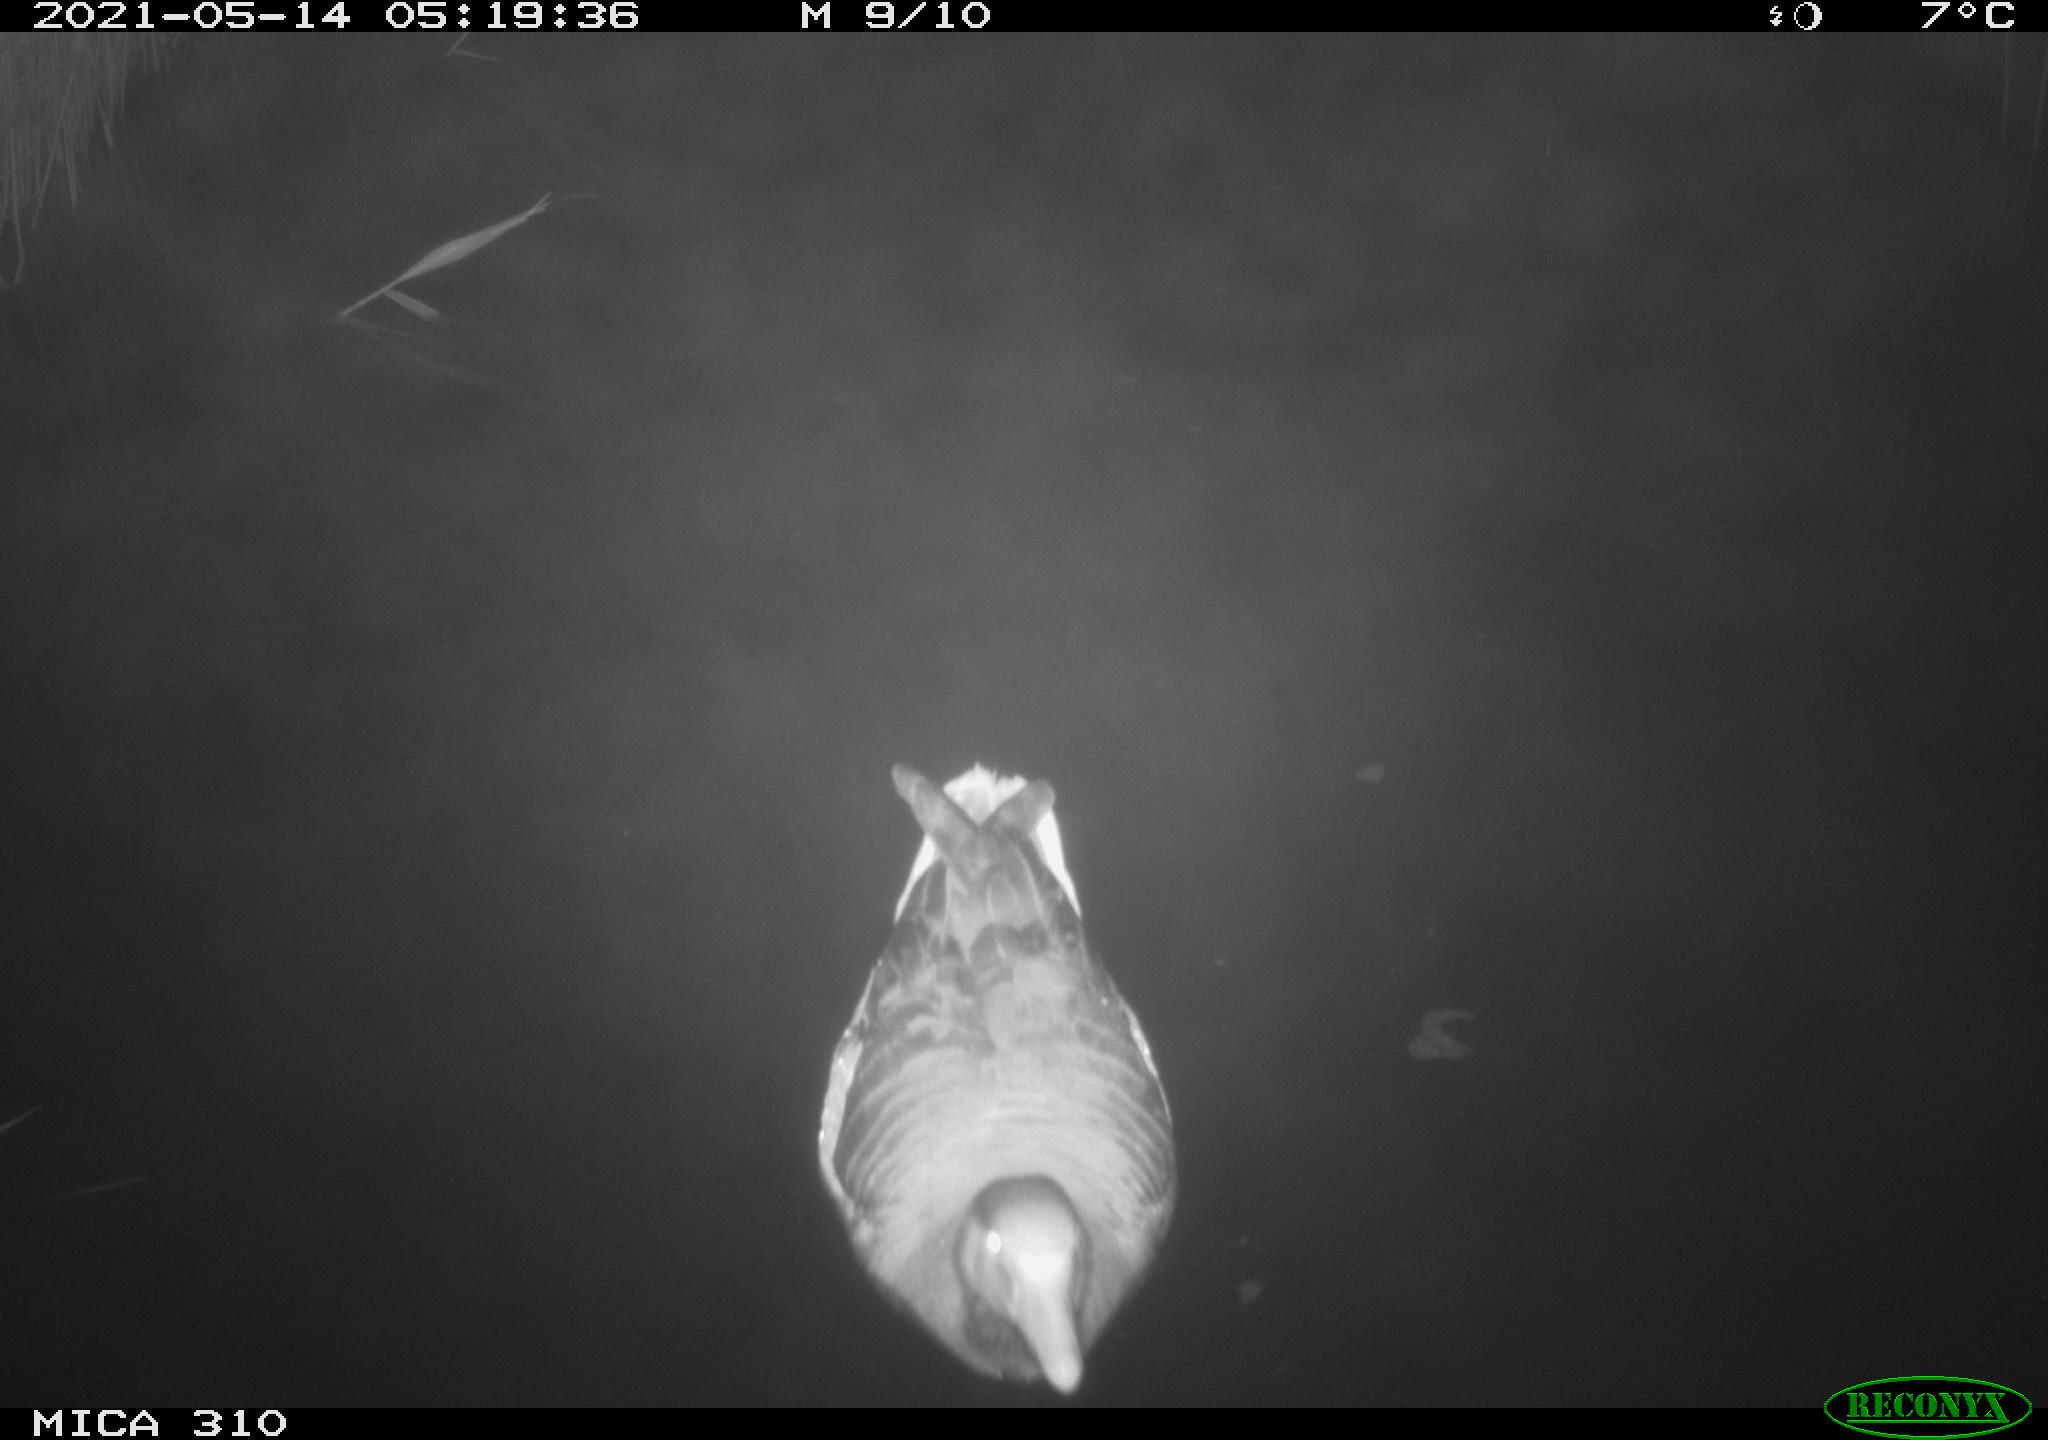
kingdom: Animalia
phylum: Chordata
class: Aves
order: Anseriformes
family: Anatidae
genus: Anas
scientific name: Anas platyrhynchos
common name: Mallard
